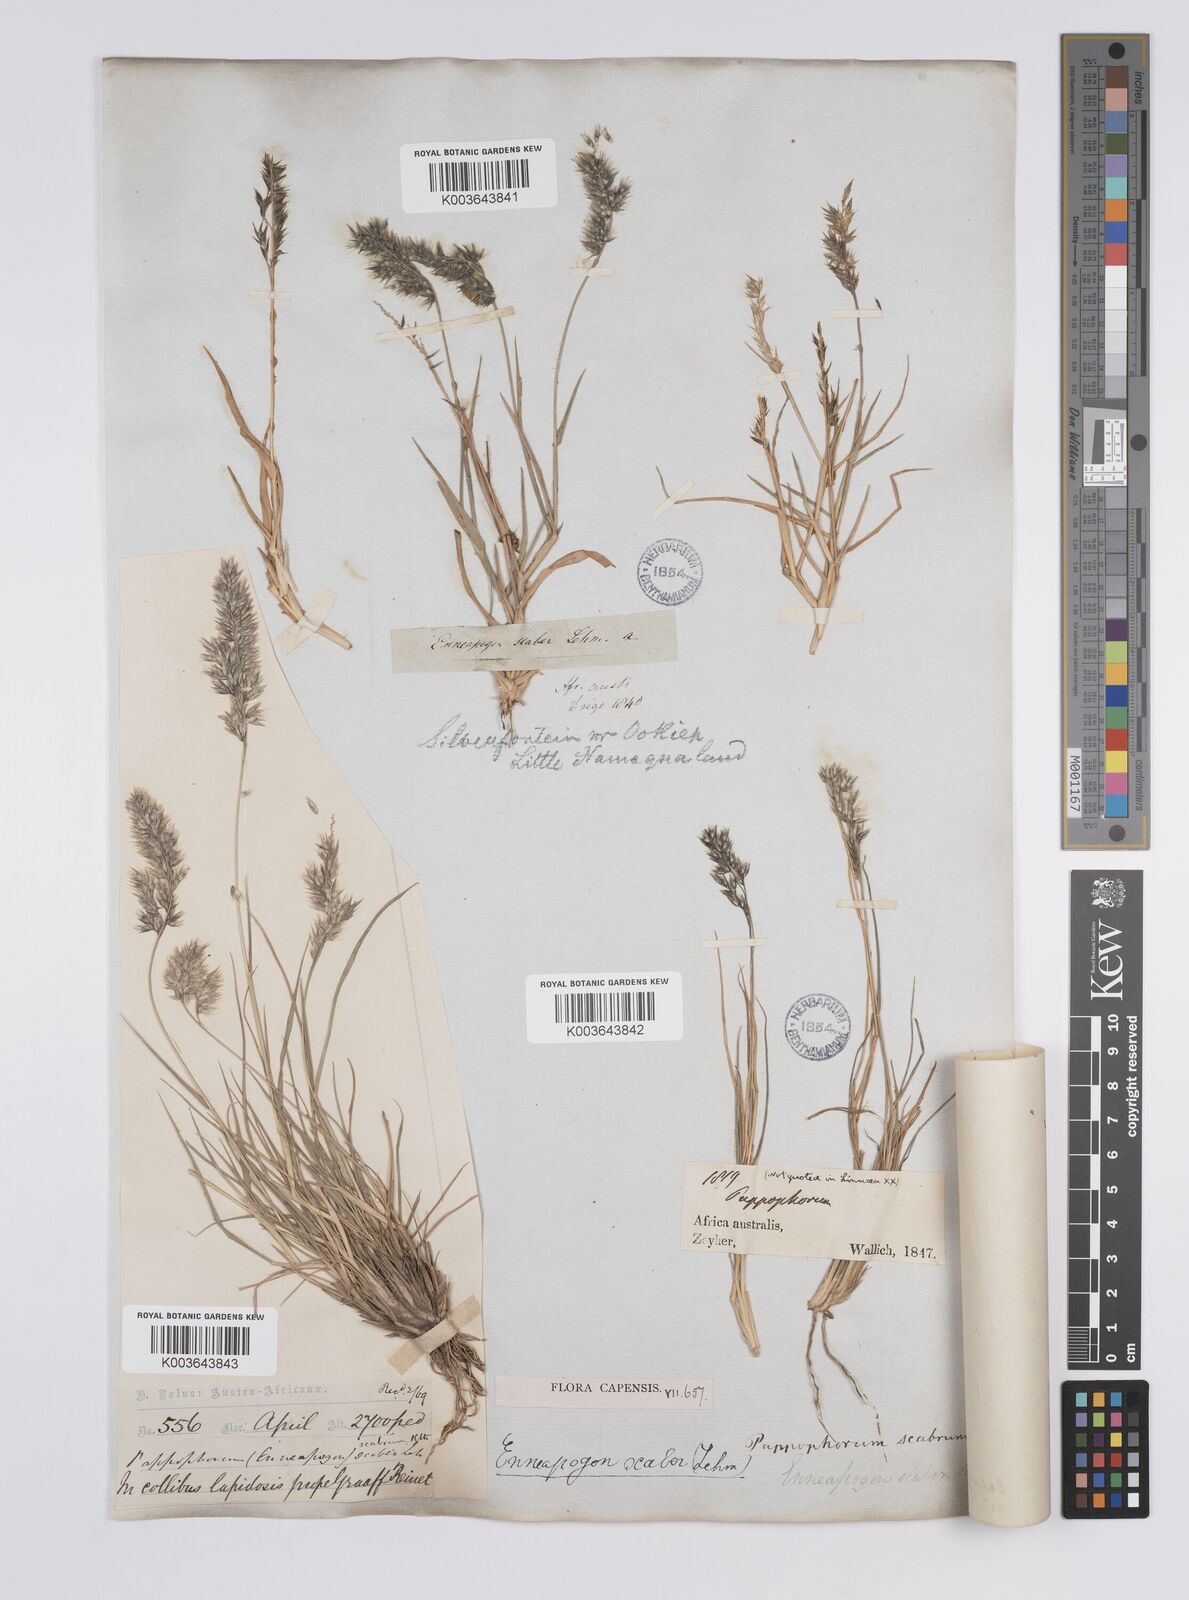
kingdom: Plantae
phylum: Tracheophyta
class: Liliopsida
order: Poales
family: Poaceae
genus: Enneapogon
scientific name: Enneapogon scaber
